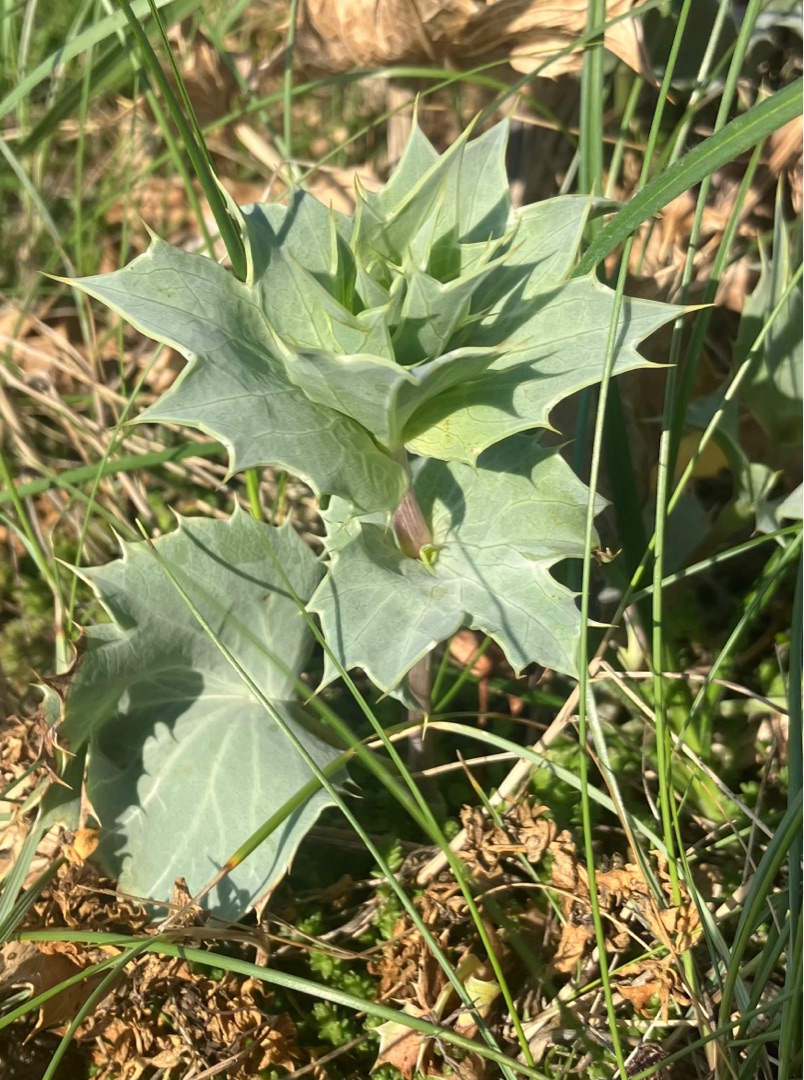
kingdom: Plantae
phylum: Tracheophyta
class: Magnoliopsida
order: Apiales
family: Apiaceae
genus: Eryngium
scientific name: Eryngium maritimum
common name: Strand-mandstro
